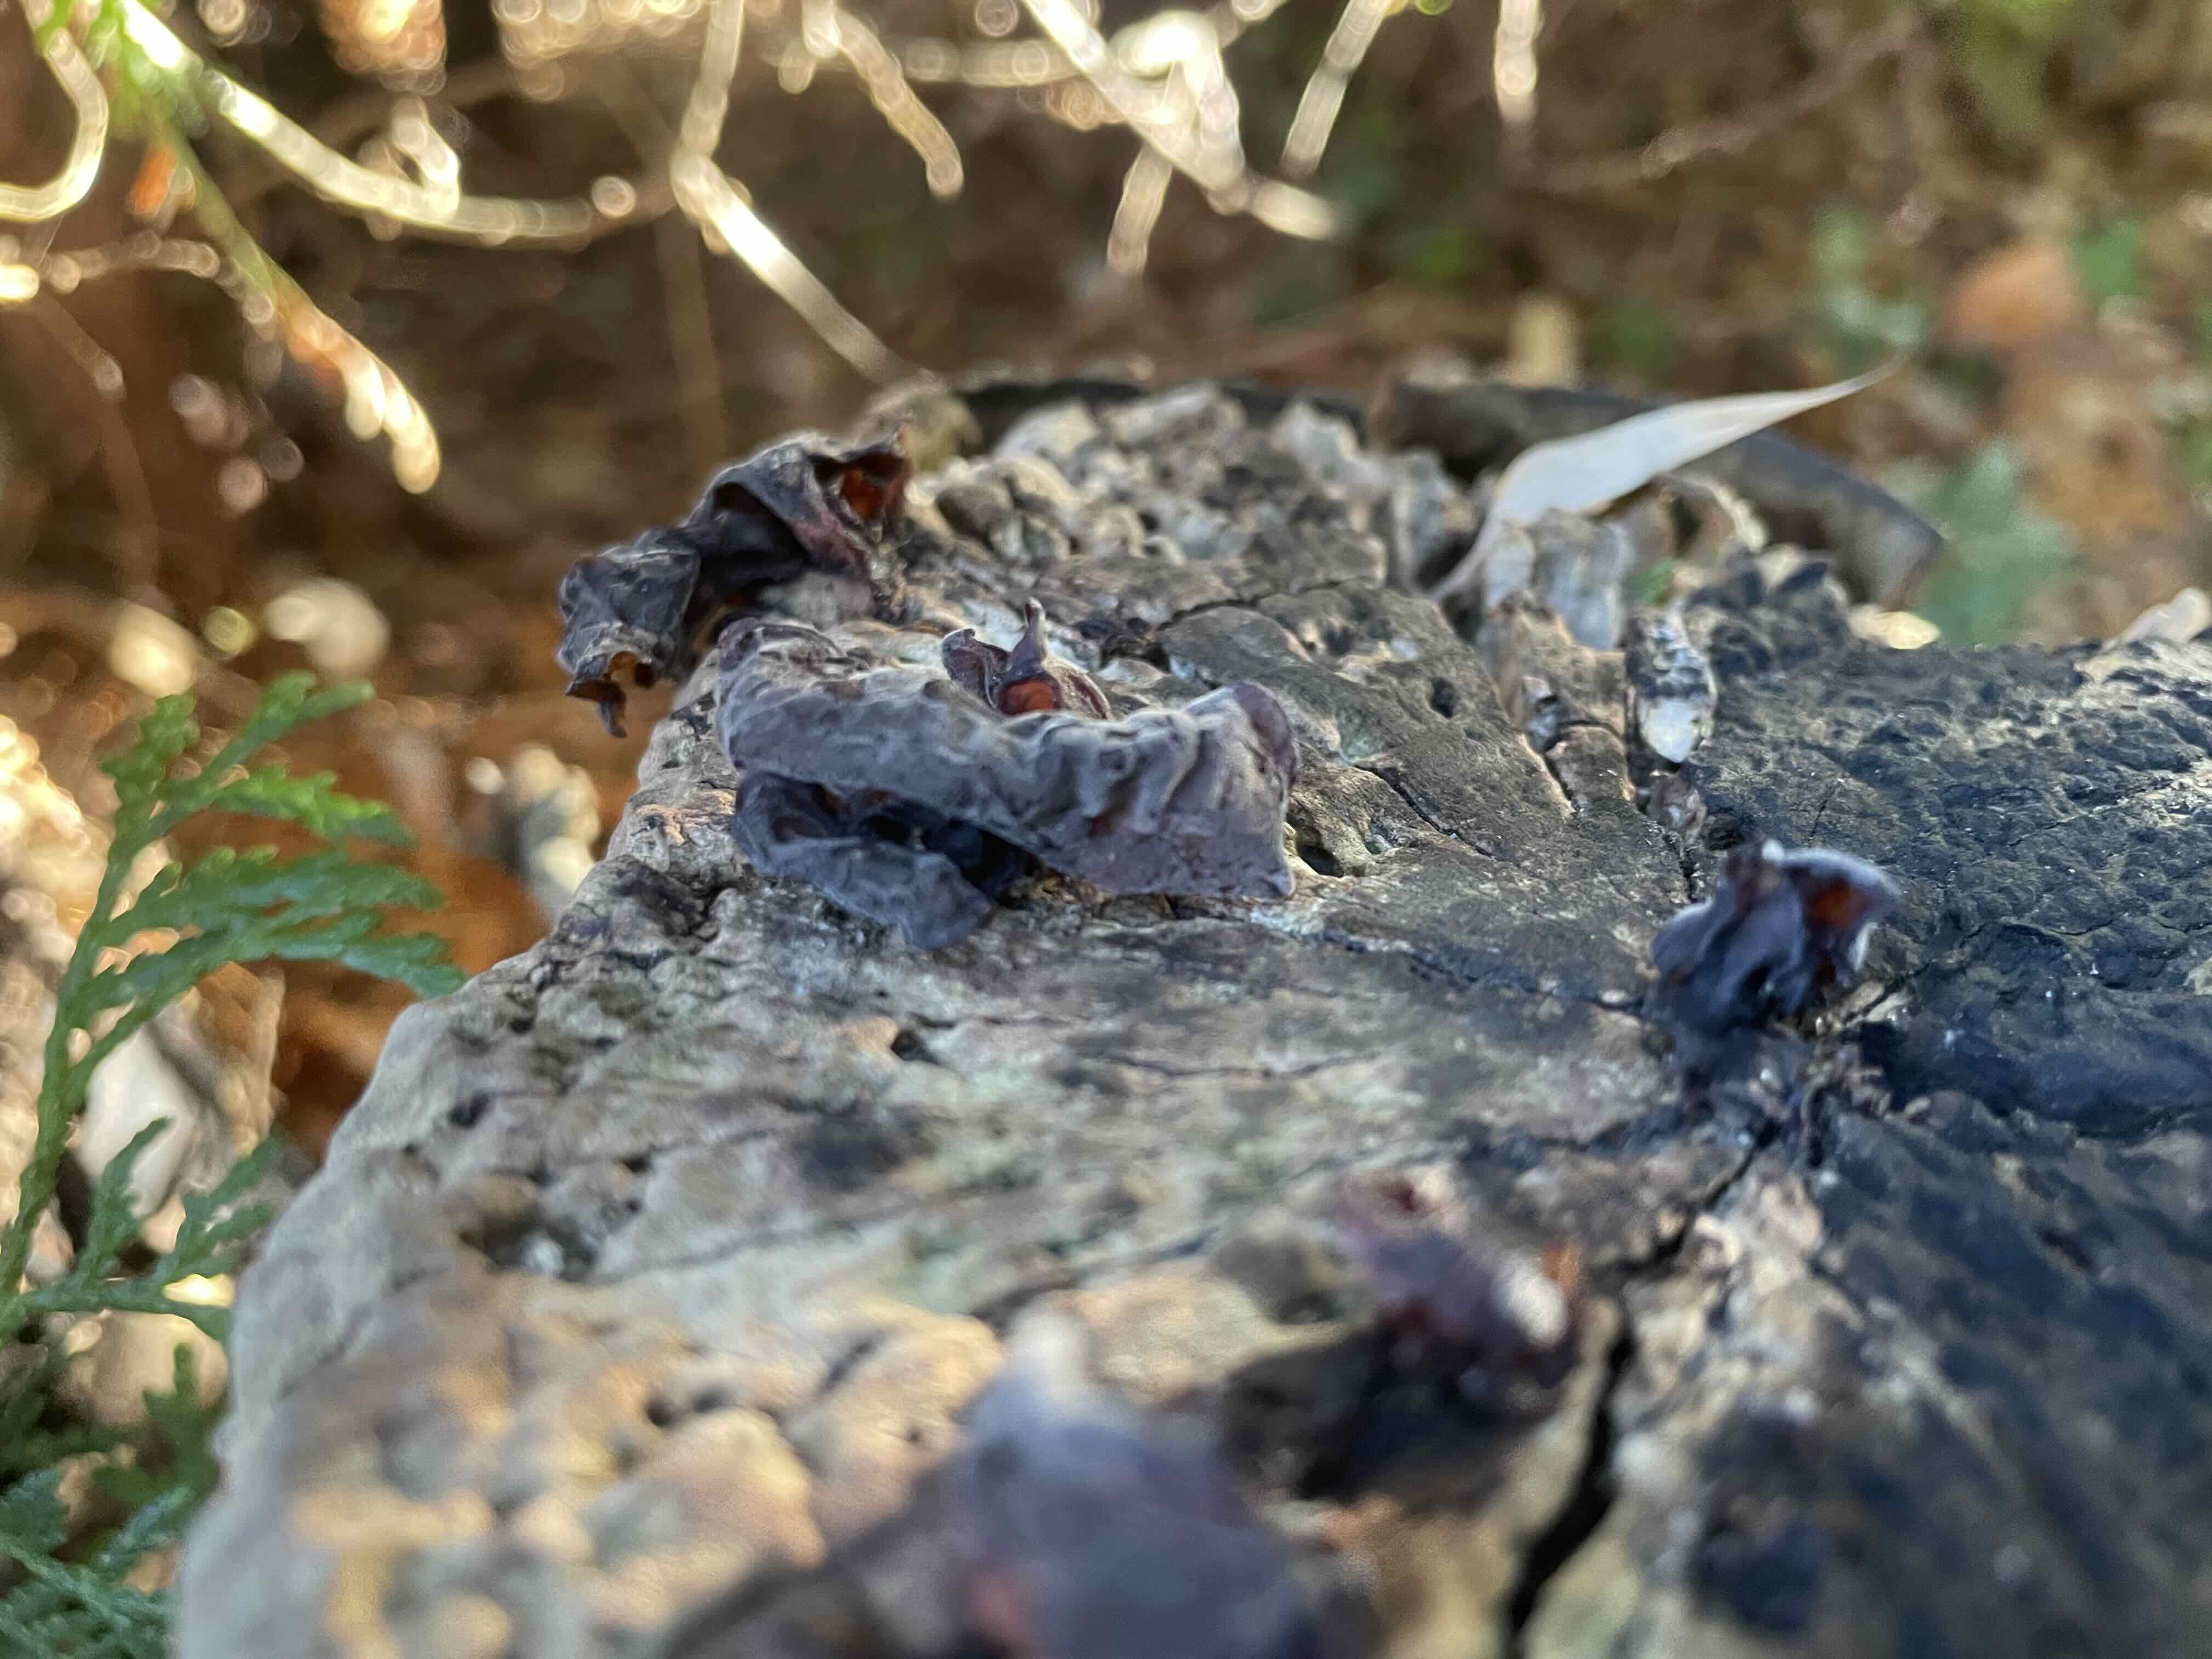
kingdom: Fungi
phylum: Basidiomycota
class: Agaricomycetes
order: Auriculariales
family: Auriculariaceae
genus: Auricularia
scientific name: Auricularia auricula-judae
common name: almindelig judasøre
